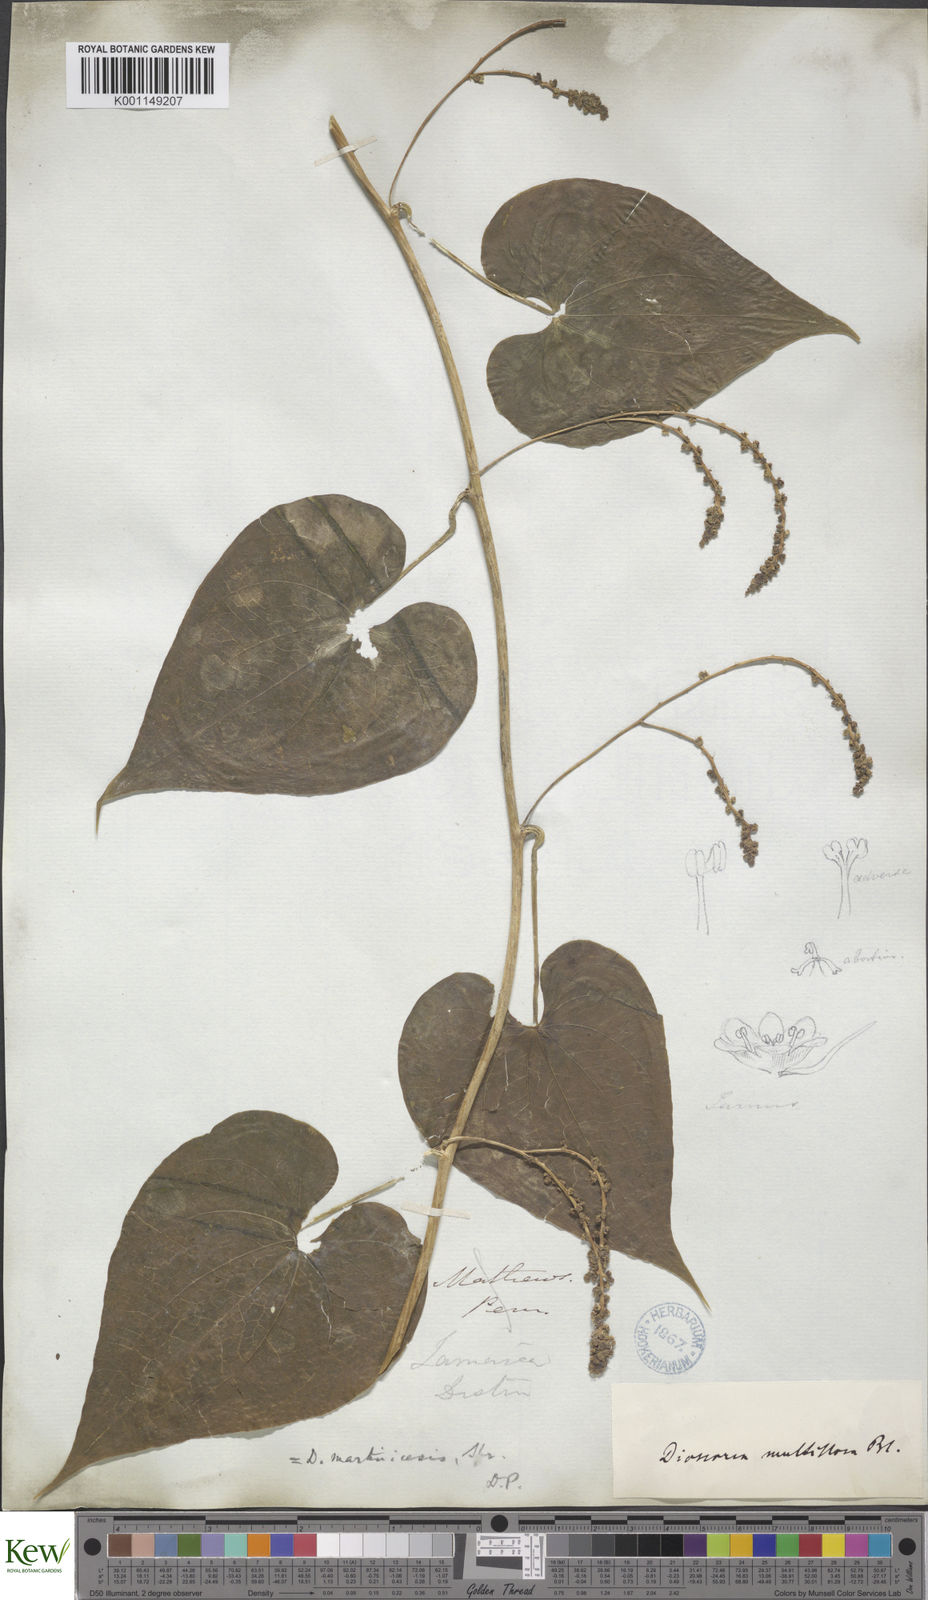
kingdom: Plantae
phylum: Tracheophyta
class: Liliopsida
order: Dioscoreales
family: Dioscoreaceae
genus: Dioscorea
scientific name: Dioscorea
